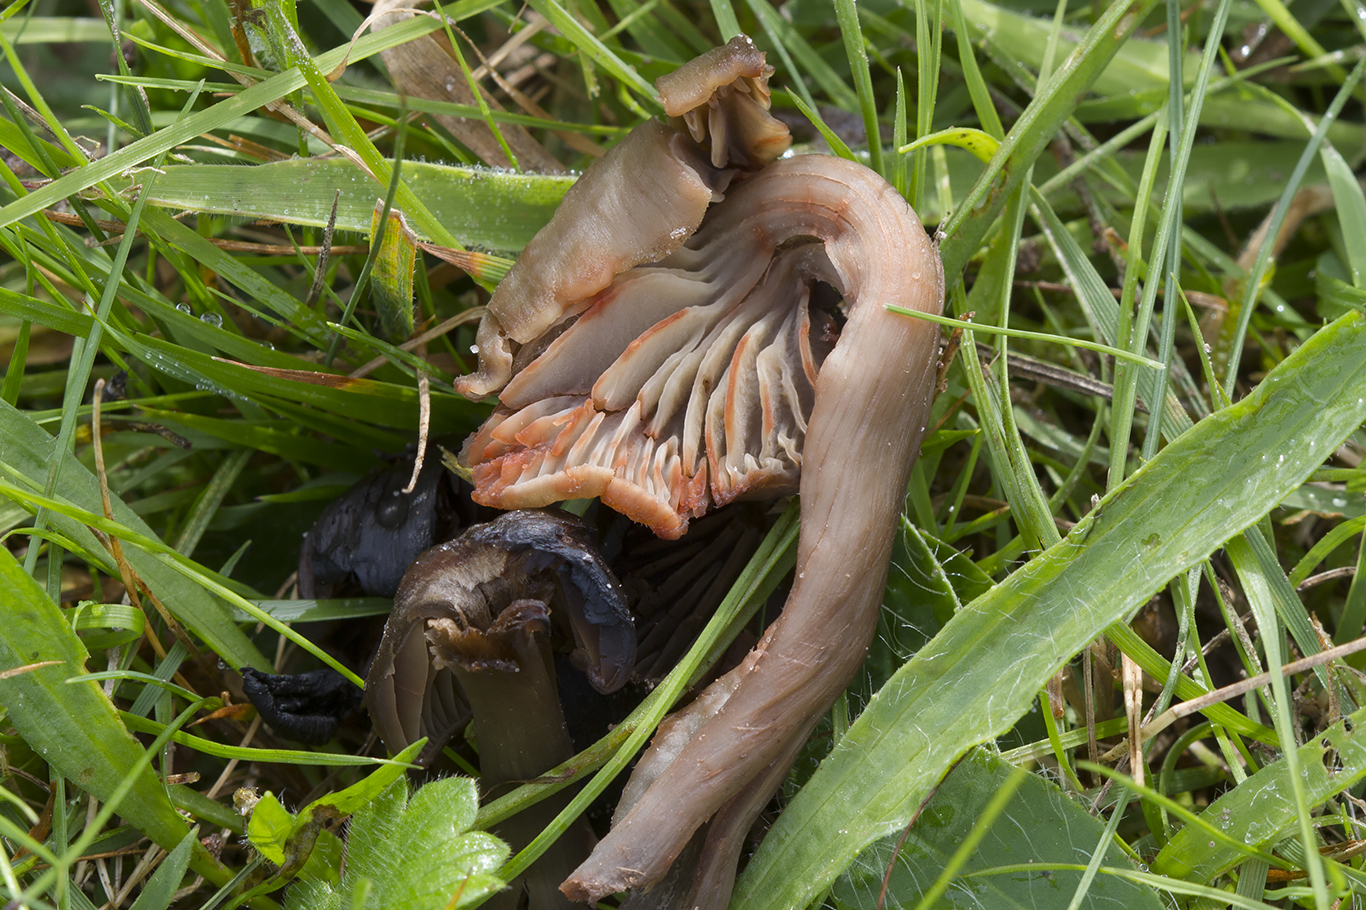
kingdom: Fungi
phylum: Basidiomycota
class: Agaricomycetes
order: Agaricales
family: Hygrophoraceae
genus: Neohygrocybe
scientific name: Neohygrocybe ovina
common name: rødmende vokshat
